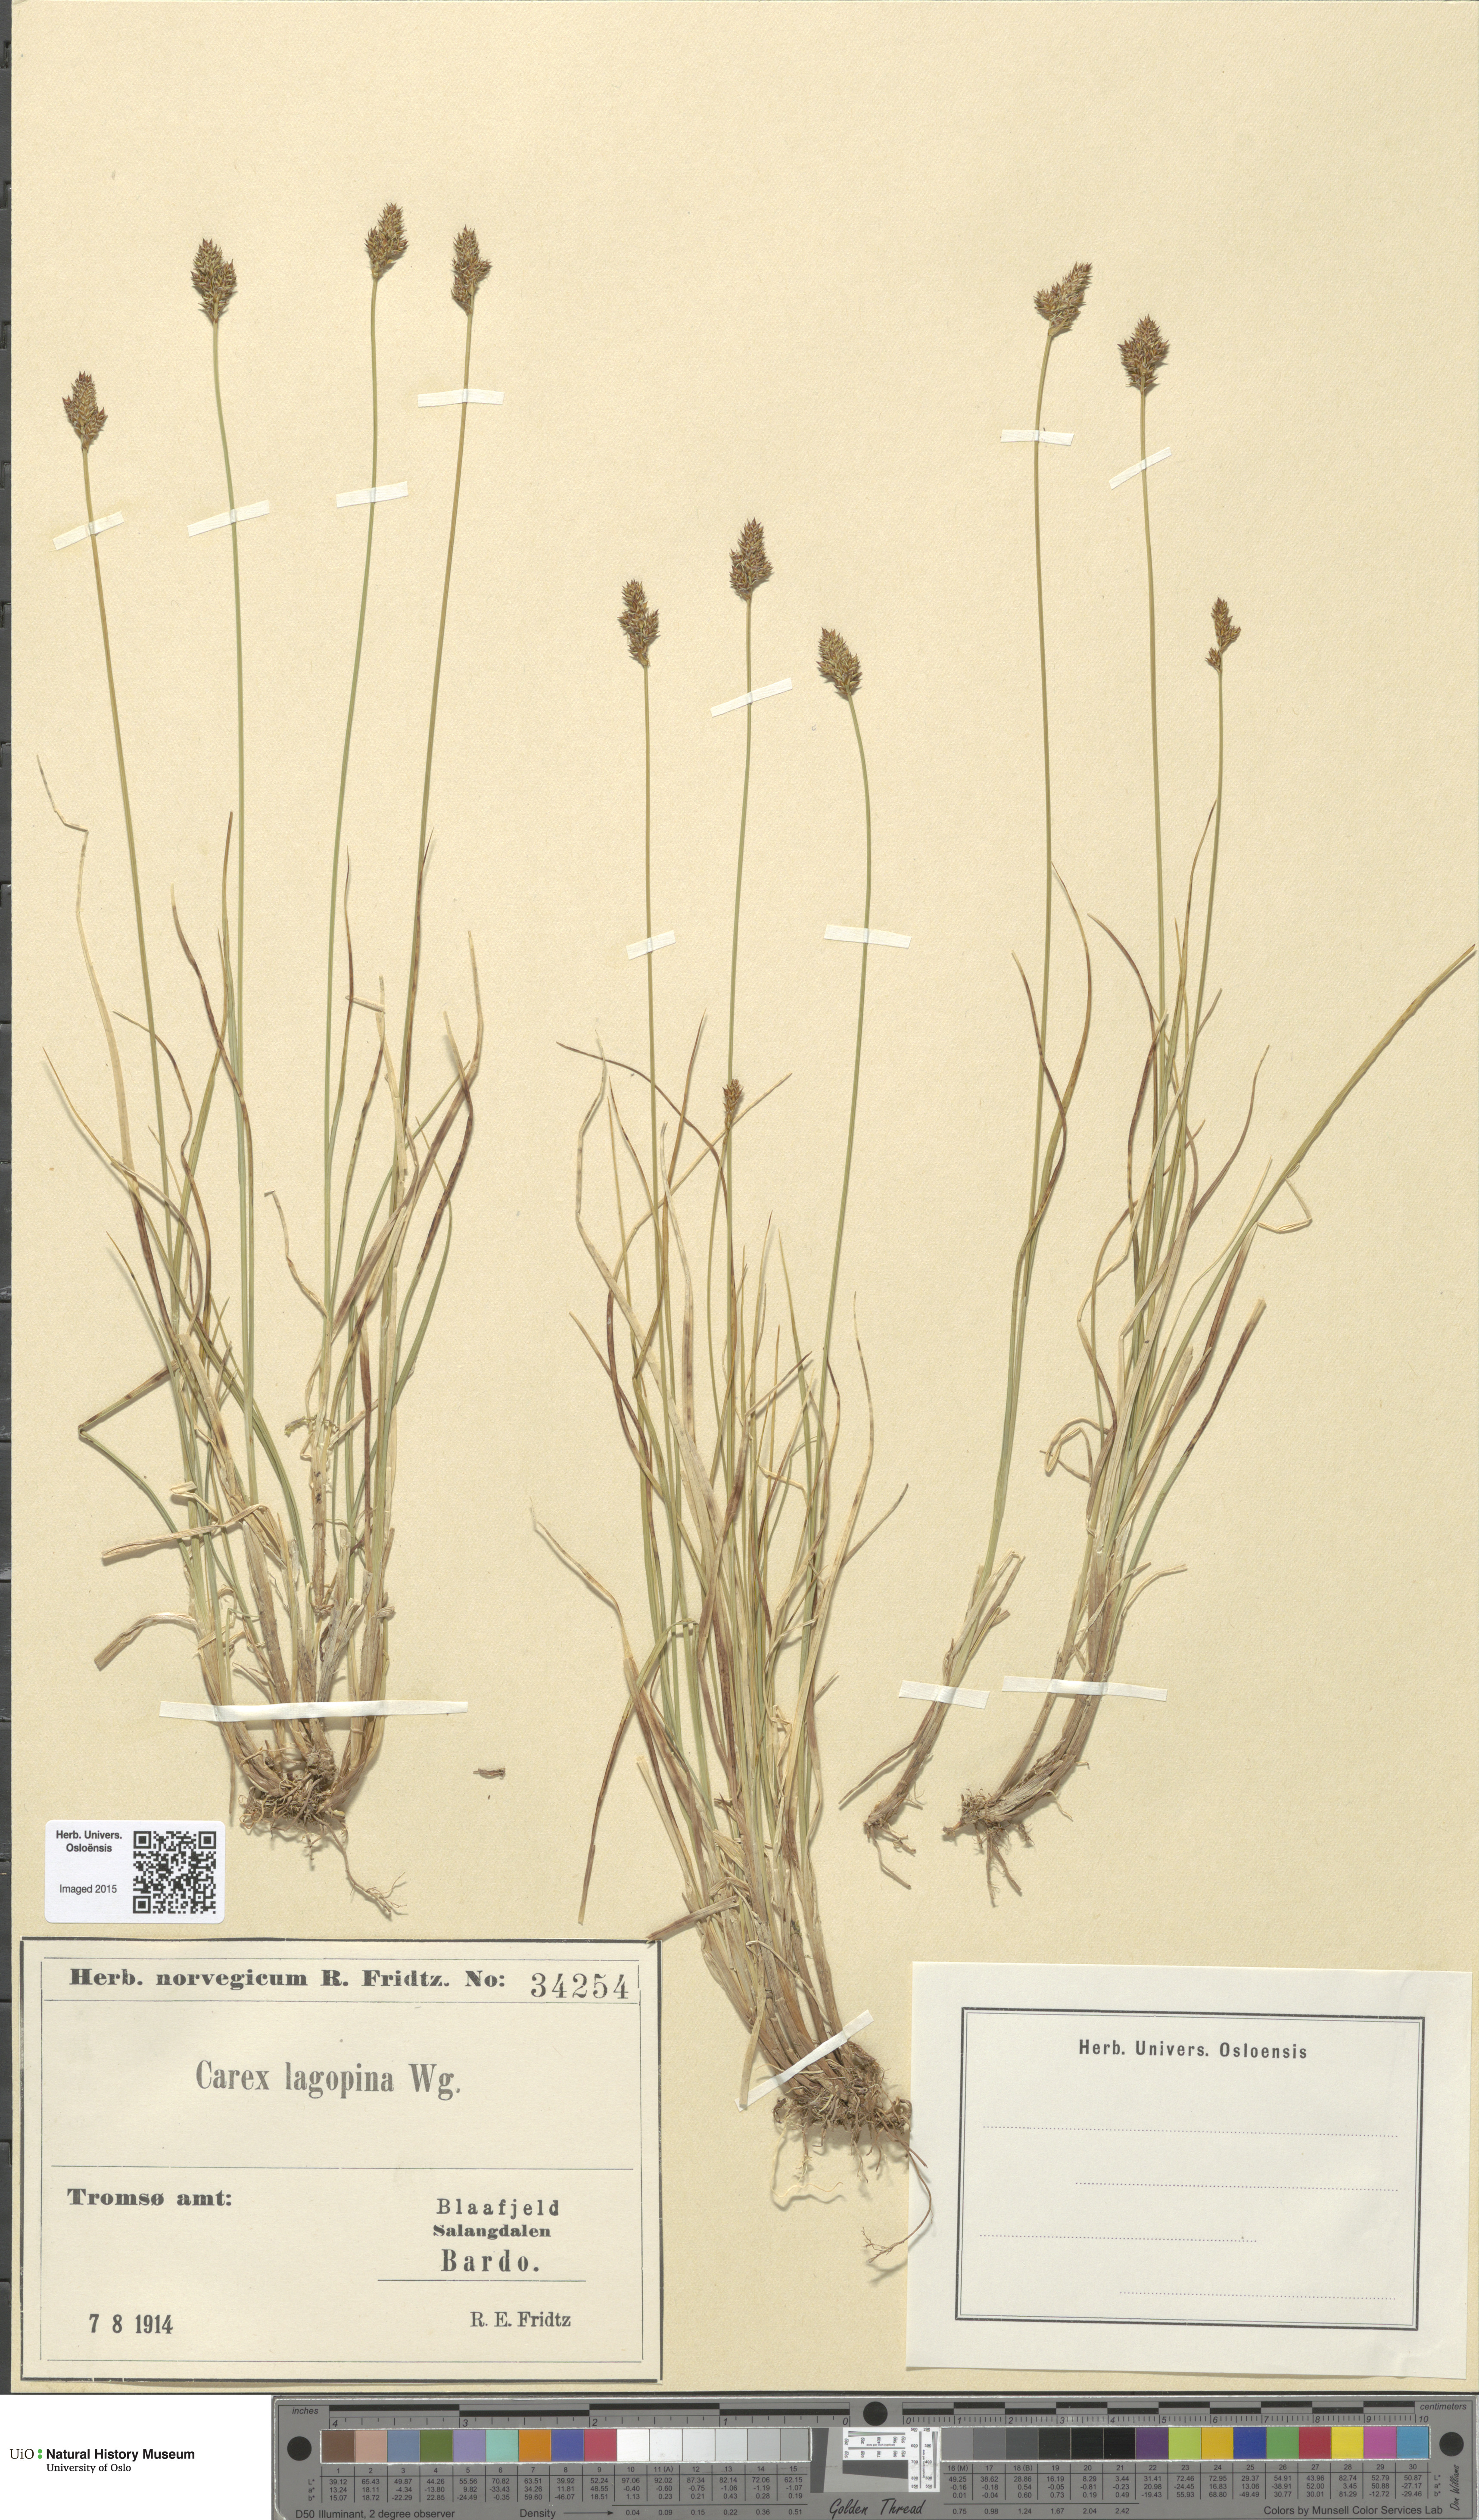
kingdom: Plantae
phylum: Tracheophyta
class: Liliopsida
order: Poales
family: Cyperaceae
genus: Carex
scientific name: Carex lachenalii
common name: Hare's-foot sedge
